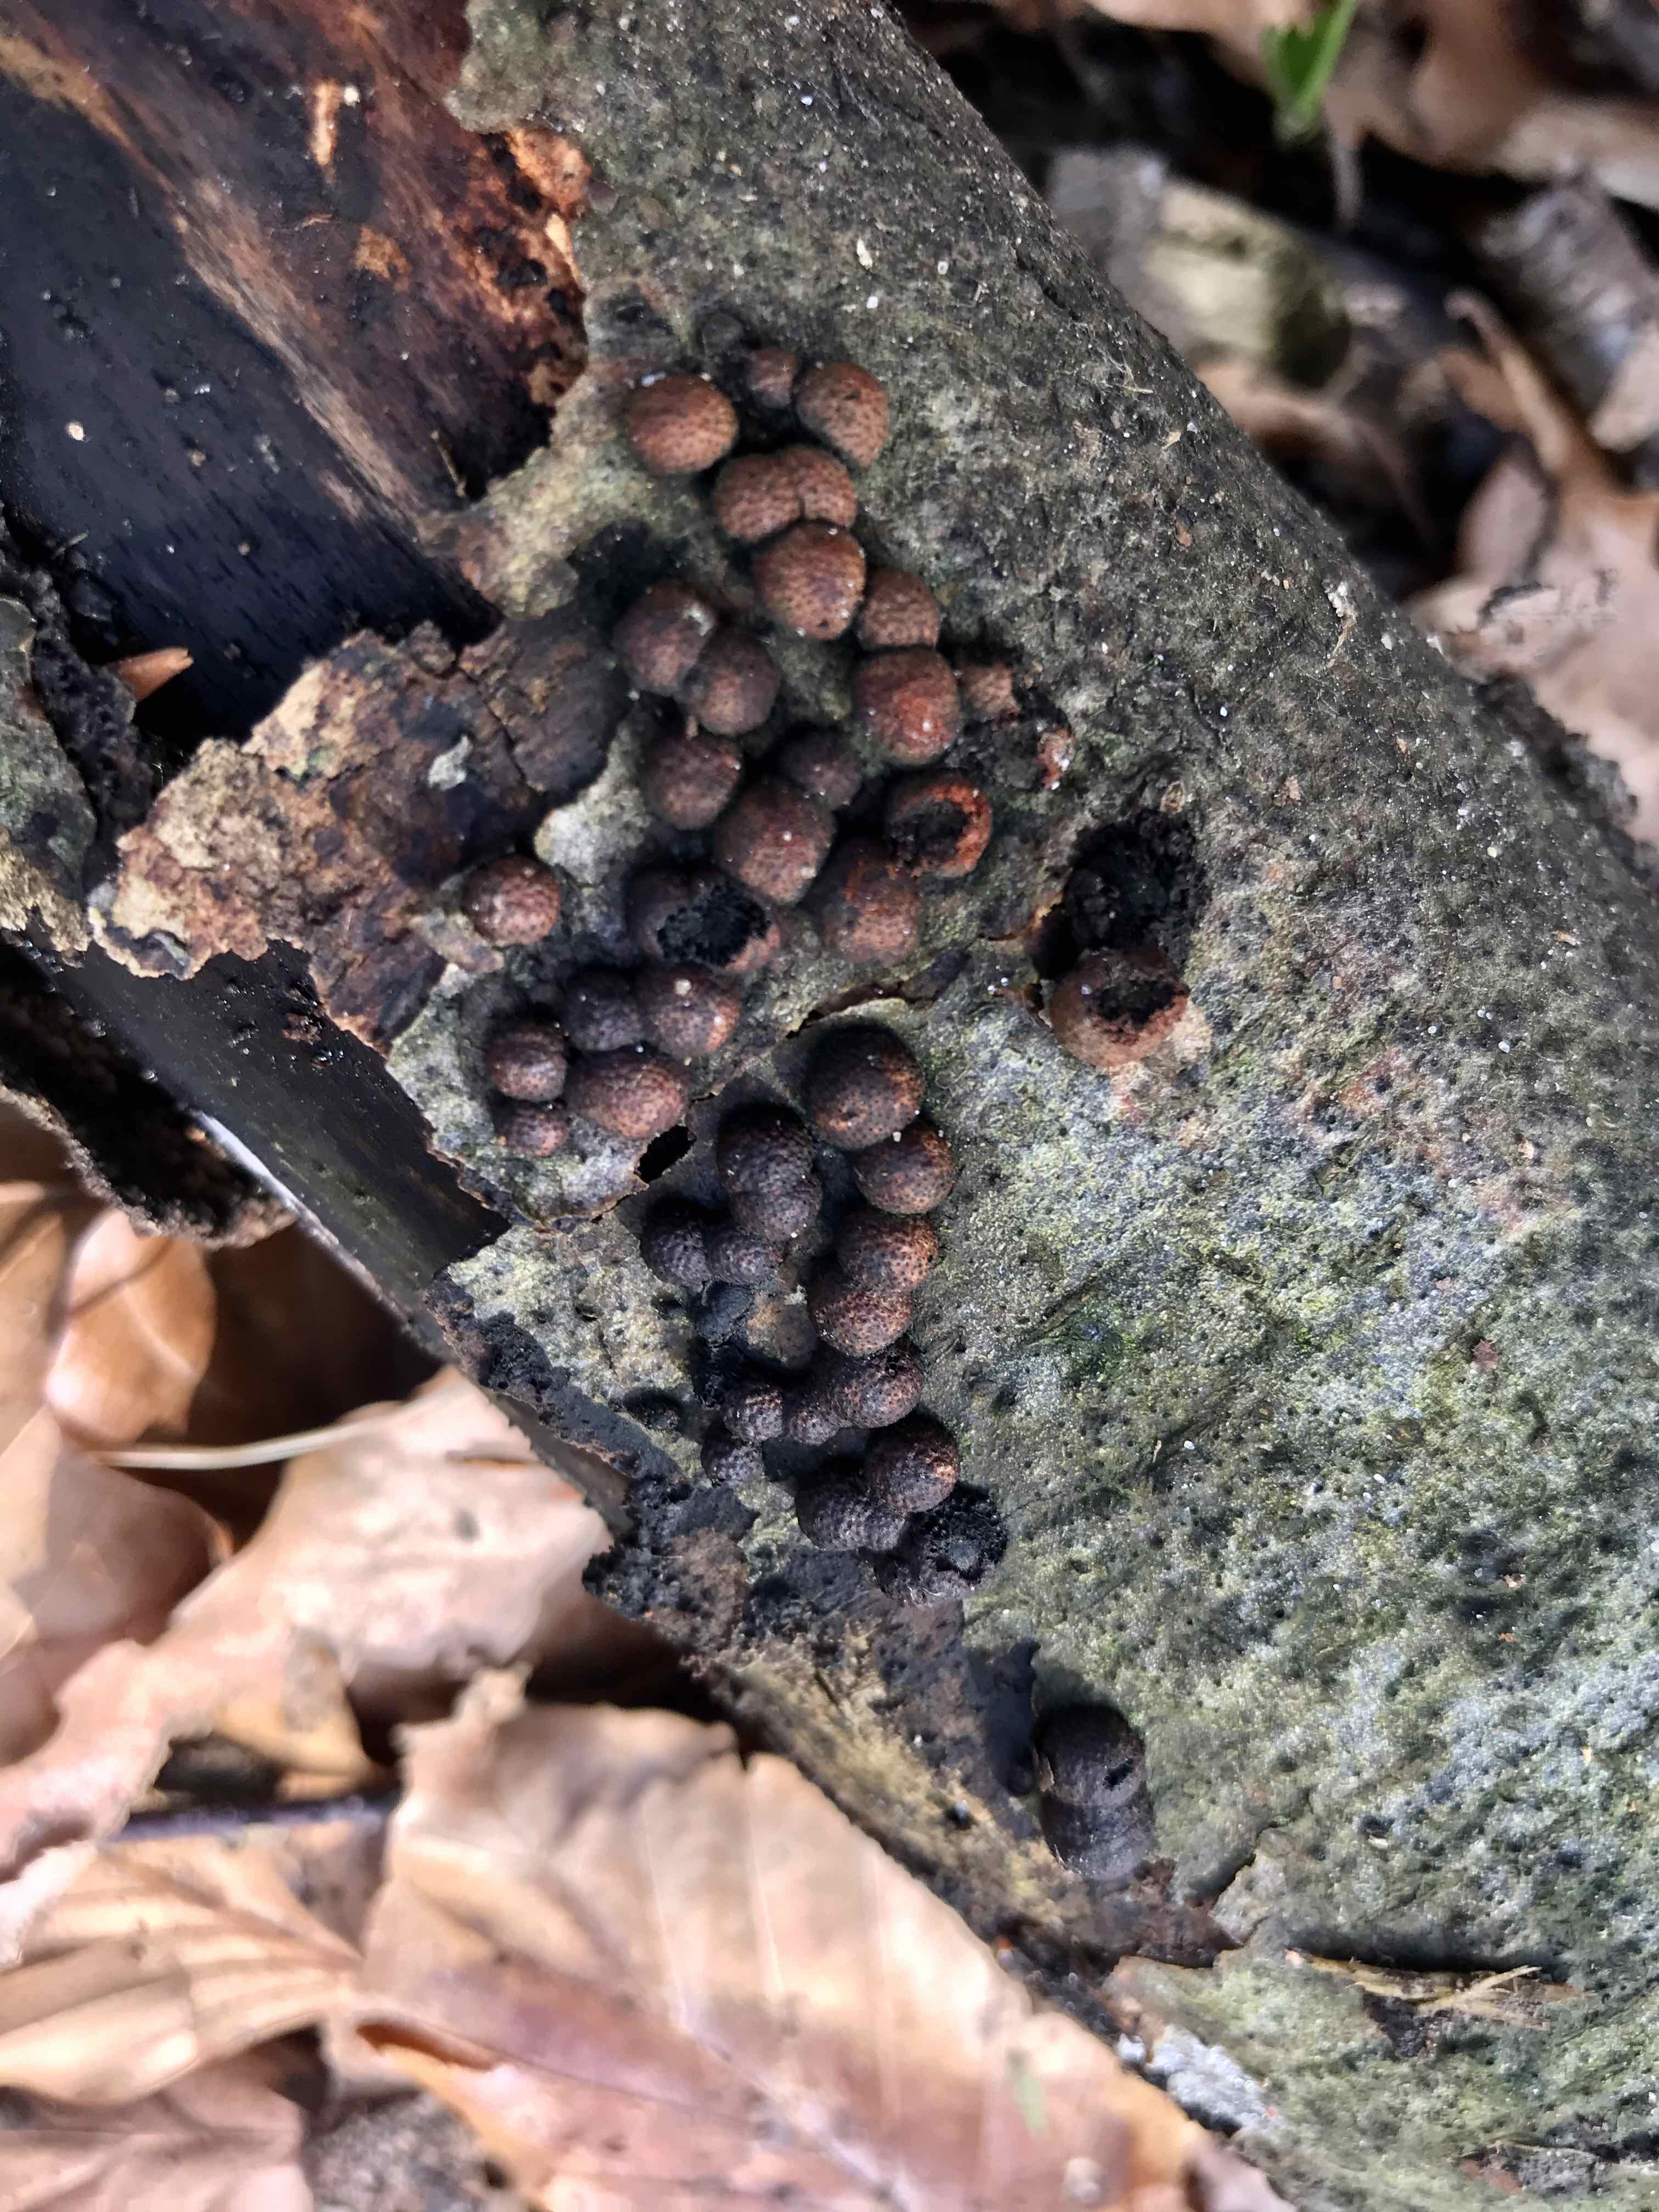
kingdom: Fungi
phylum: Ascomycota
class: Sordariomycetes
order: Xylariales
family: Hypoxylaceae
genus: Hypoxylon
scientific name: Hypoxylon fragiforme
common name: kuljordbær
